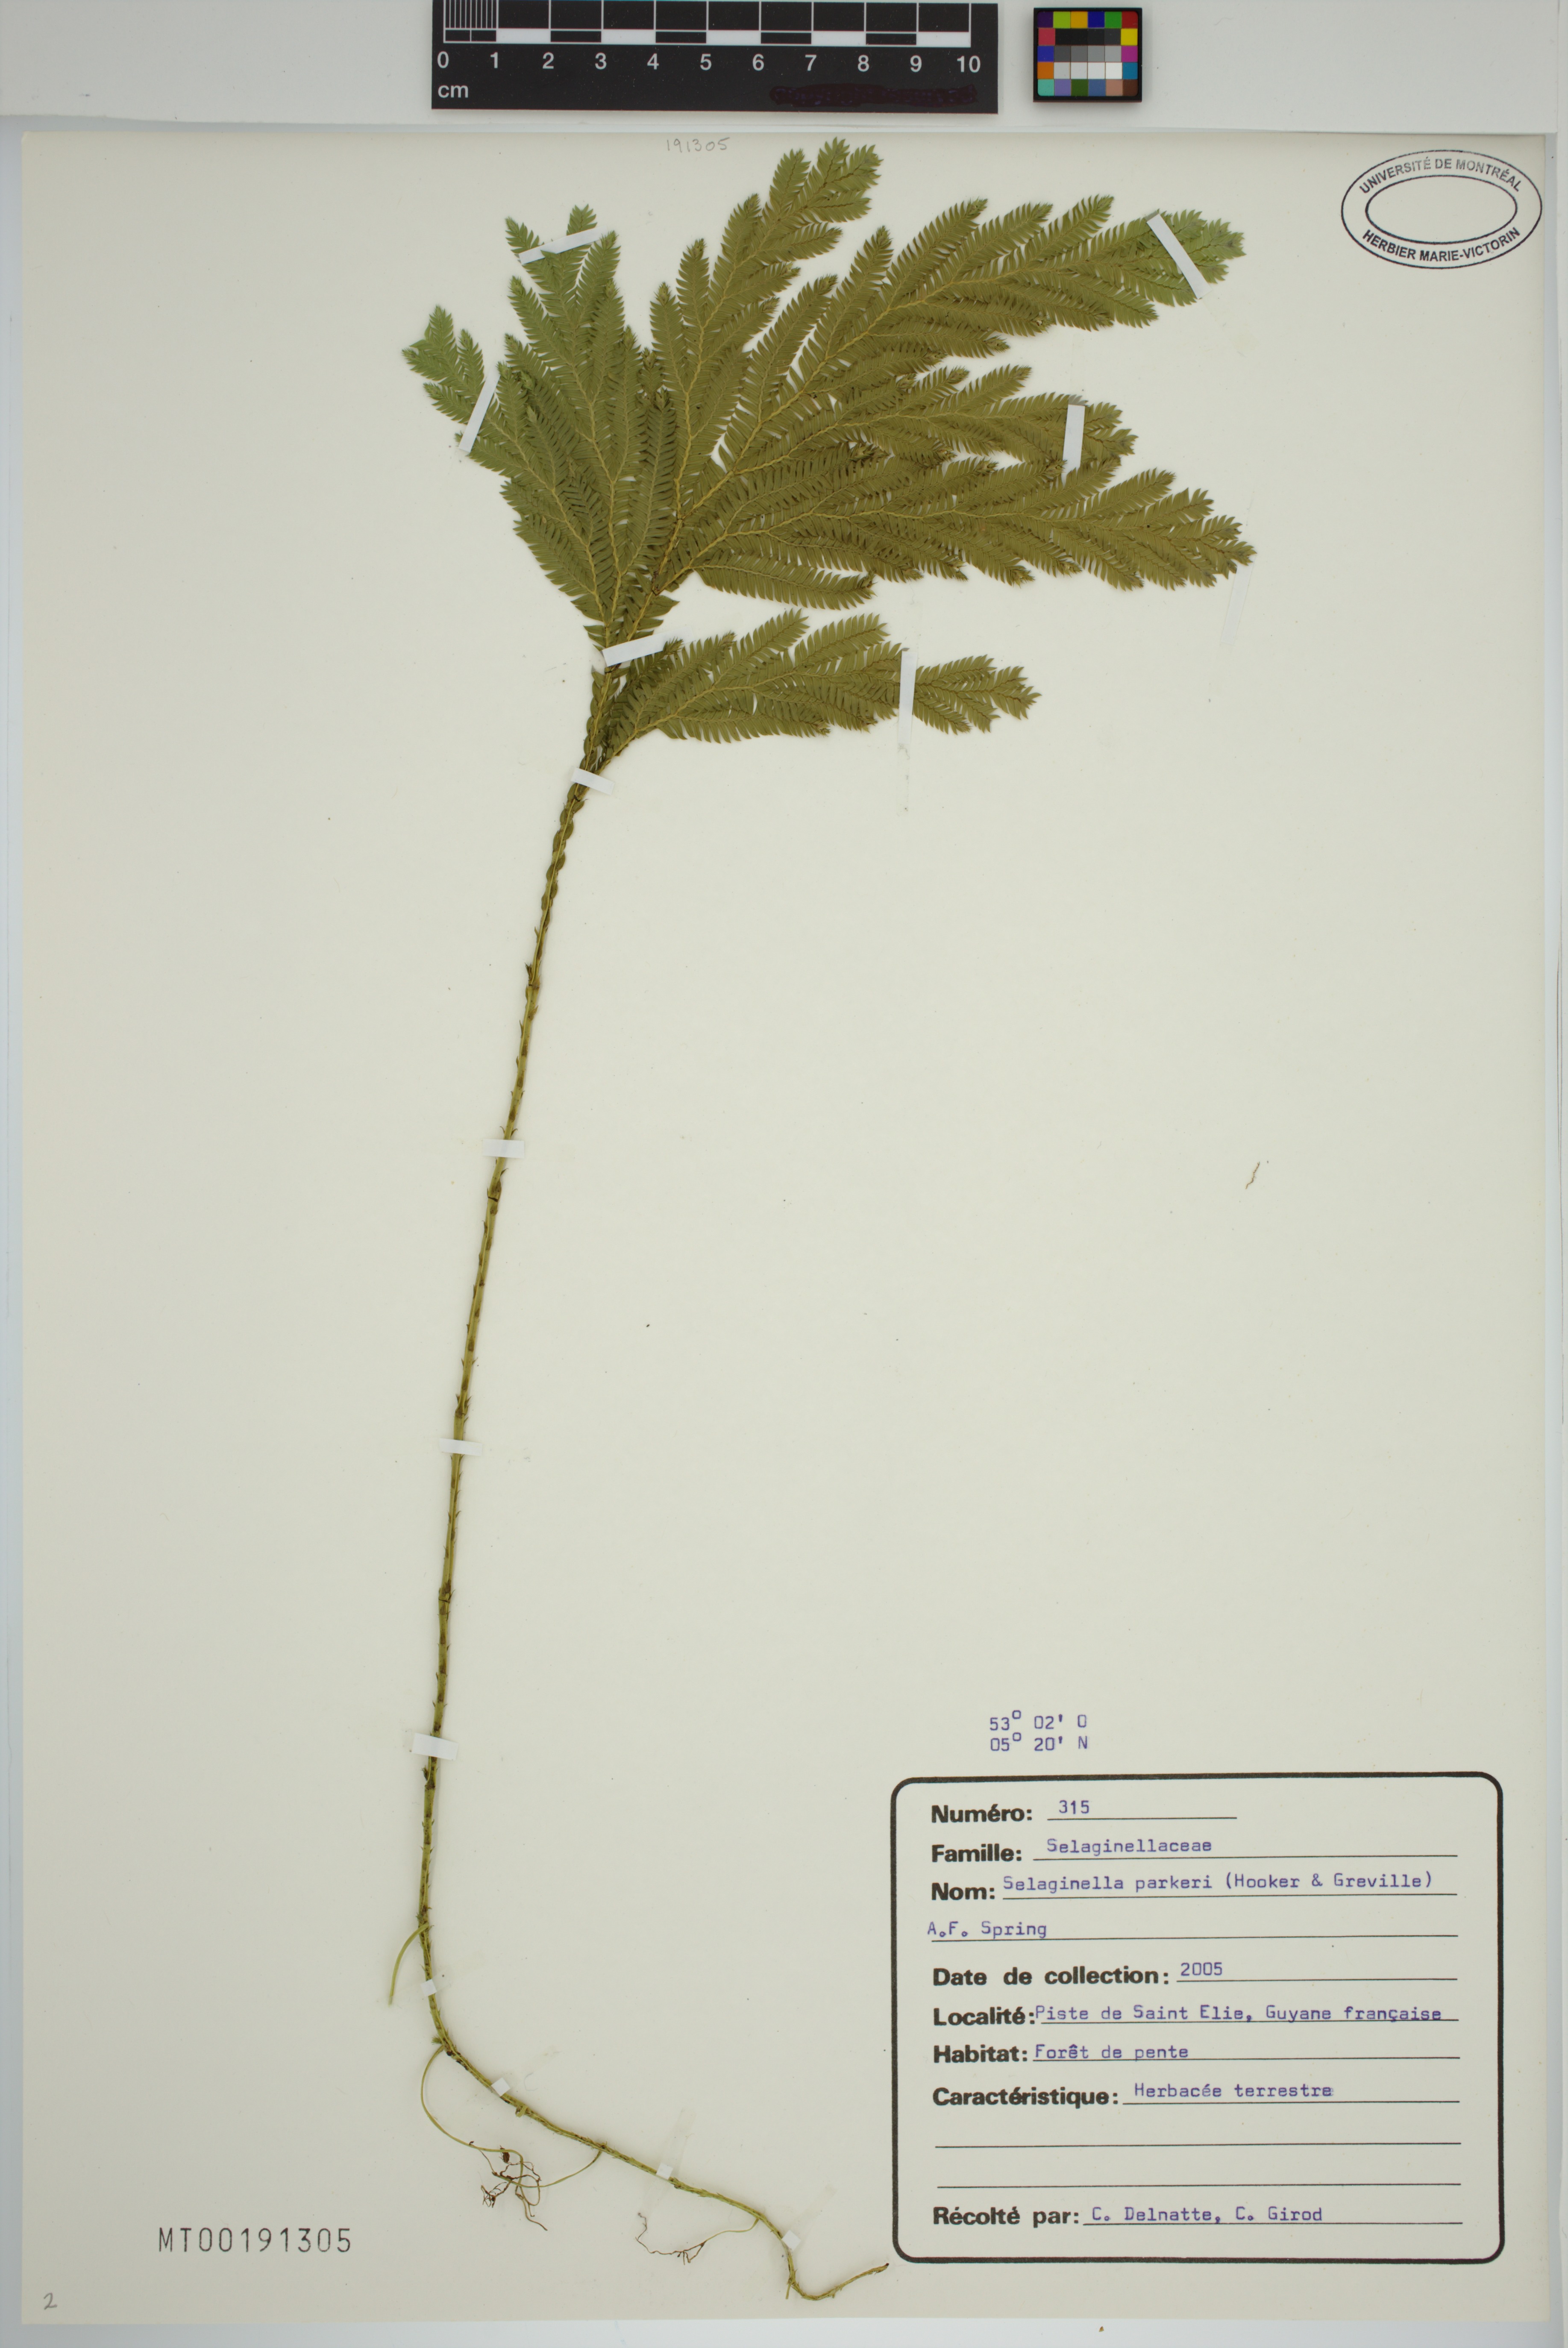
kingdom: Plantae
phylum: Tracheophyta
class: Lycopodiopsida
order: Selaginellales
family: Selaginellaceae
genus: Selaginella
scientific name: Selaginella parkeri
